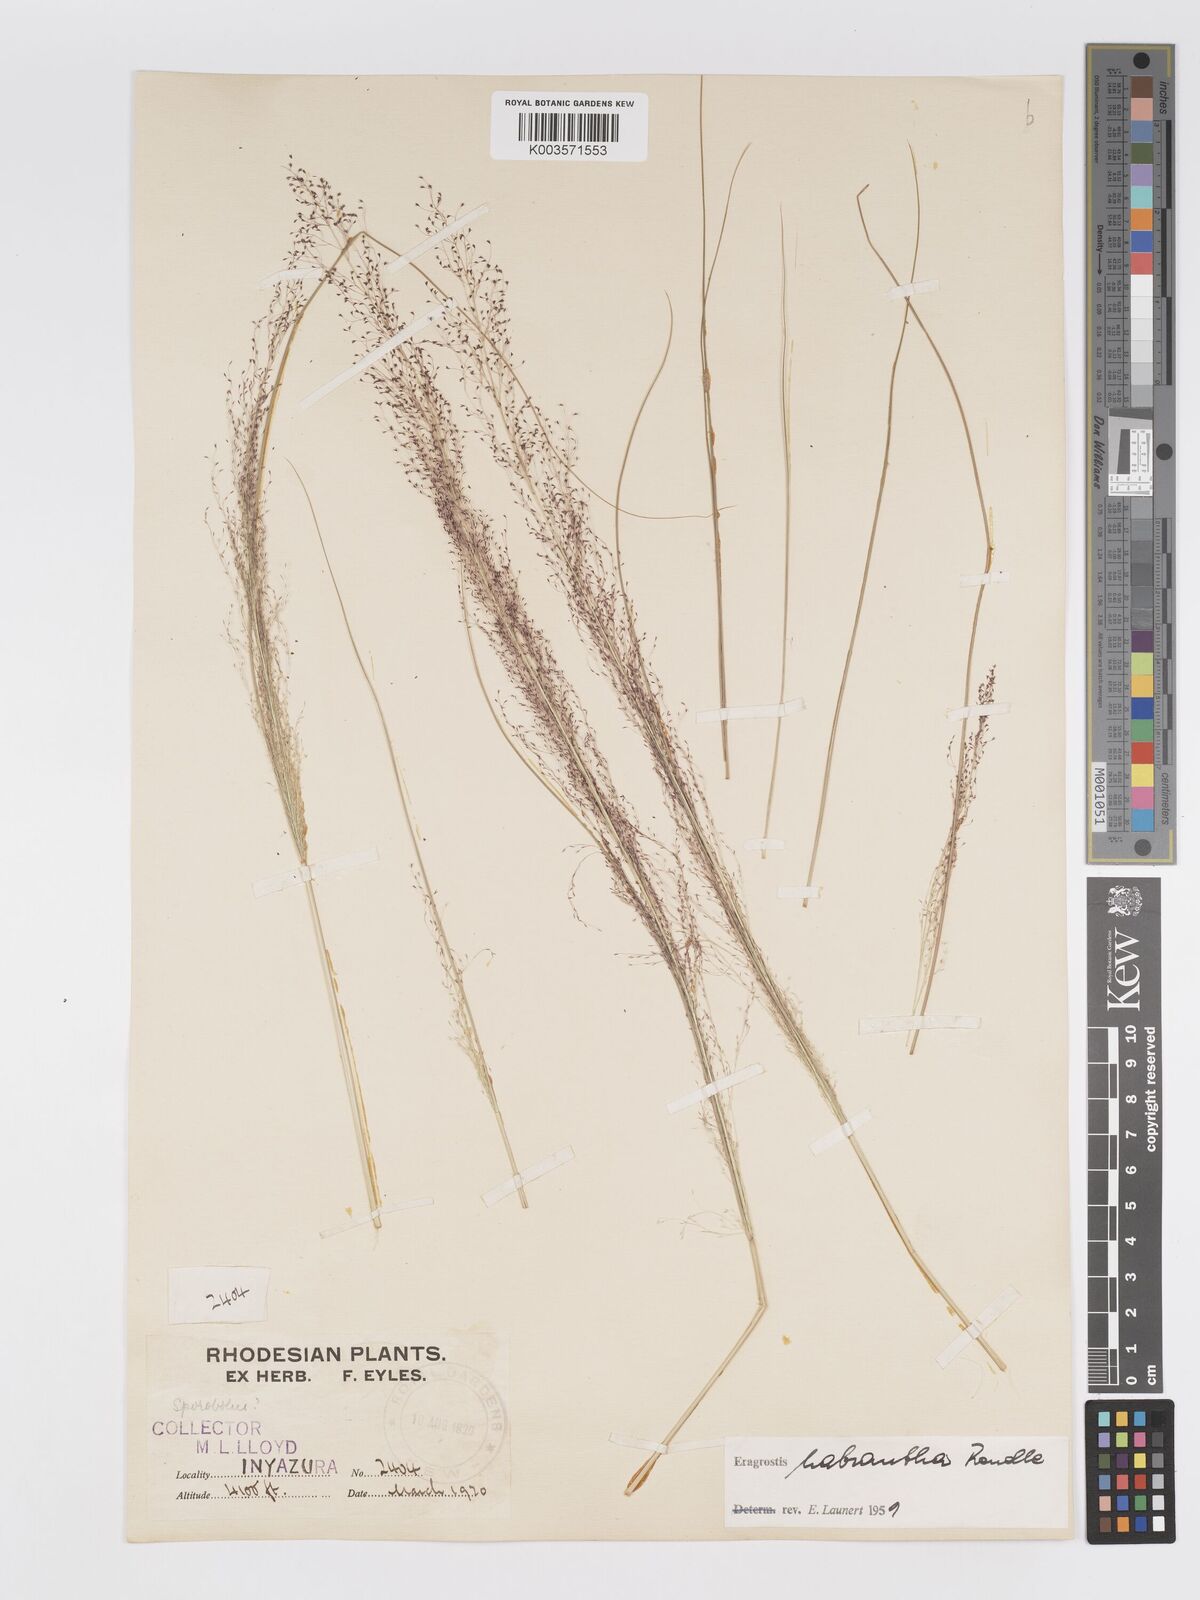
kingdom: Plantae
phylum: Tracheophyta
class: Liliopsida
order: Poales
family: Poaceae
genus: Eragrostis
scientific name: Eragrostis habrantha
